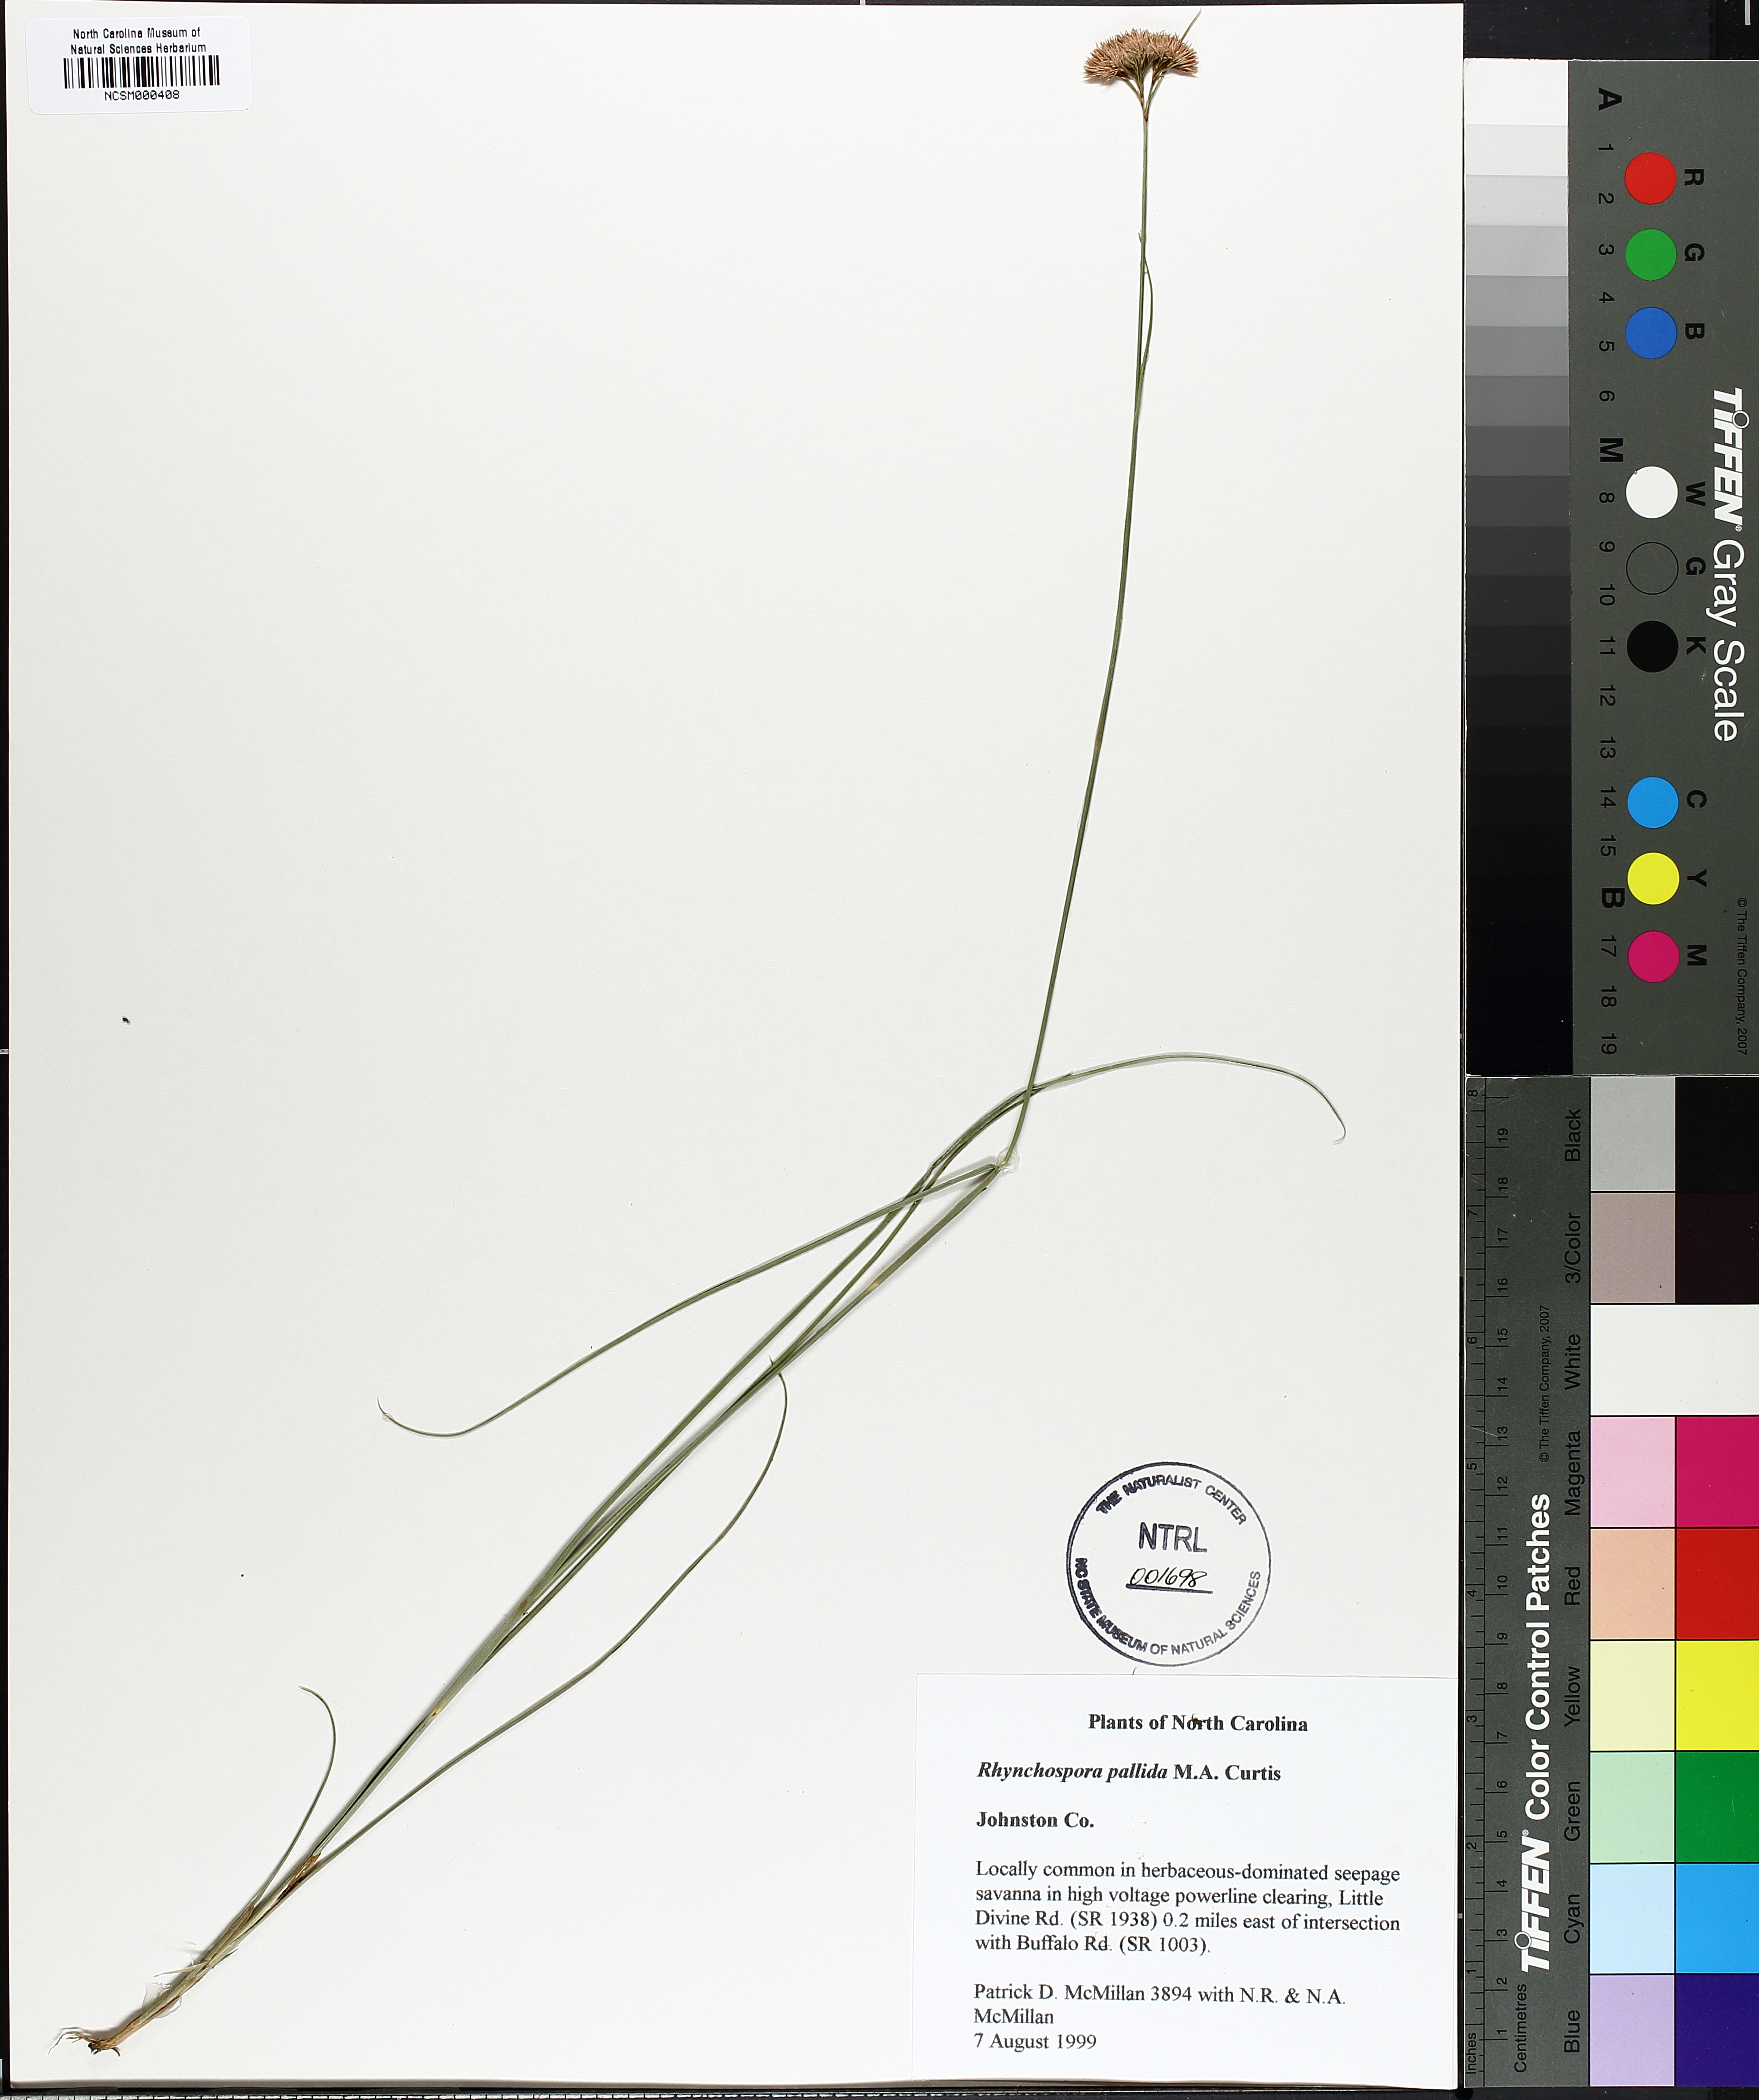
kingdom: Plantae
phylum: Tracheophyta
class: Liliopsida
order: Poales
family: Cyperaceae
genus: Rhynchospora
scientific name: Rhynchospora pallida
